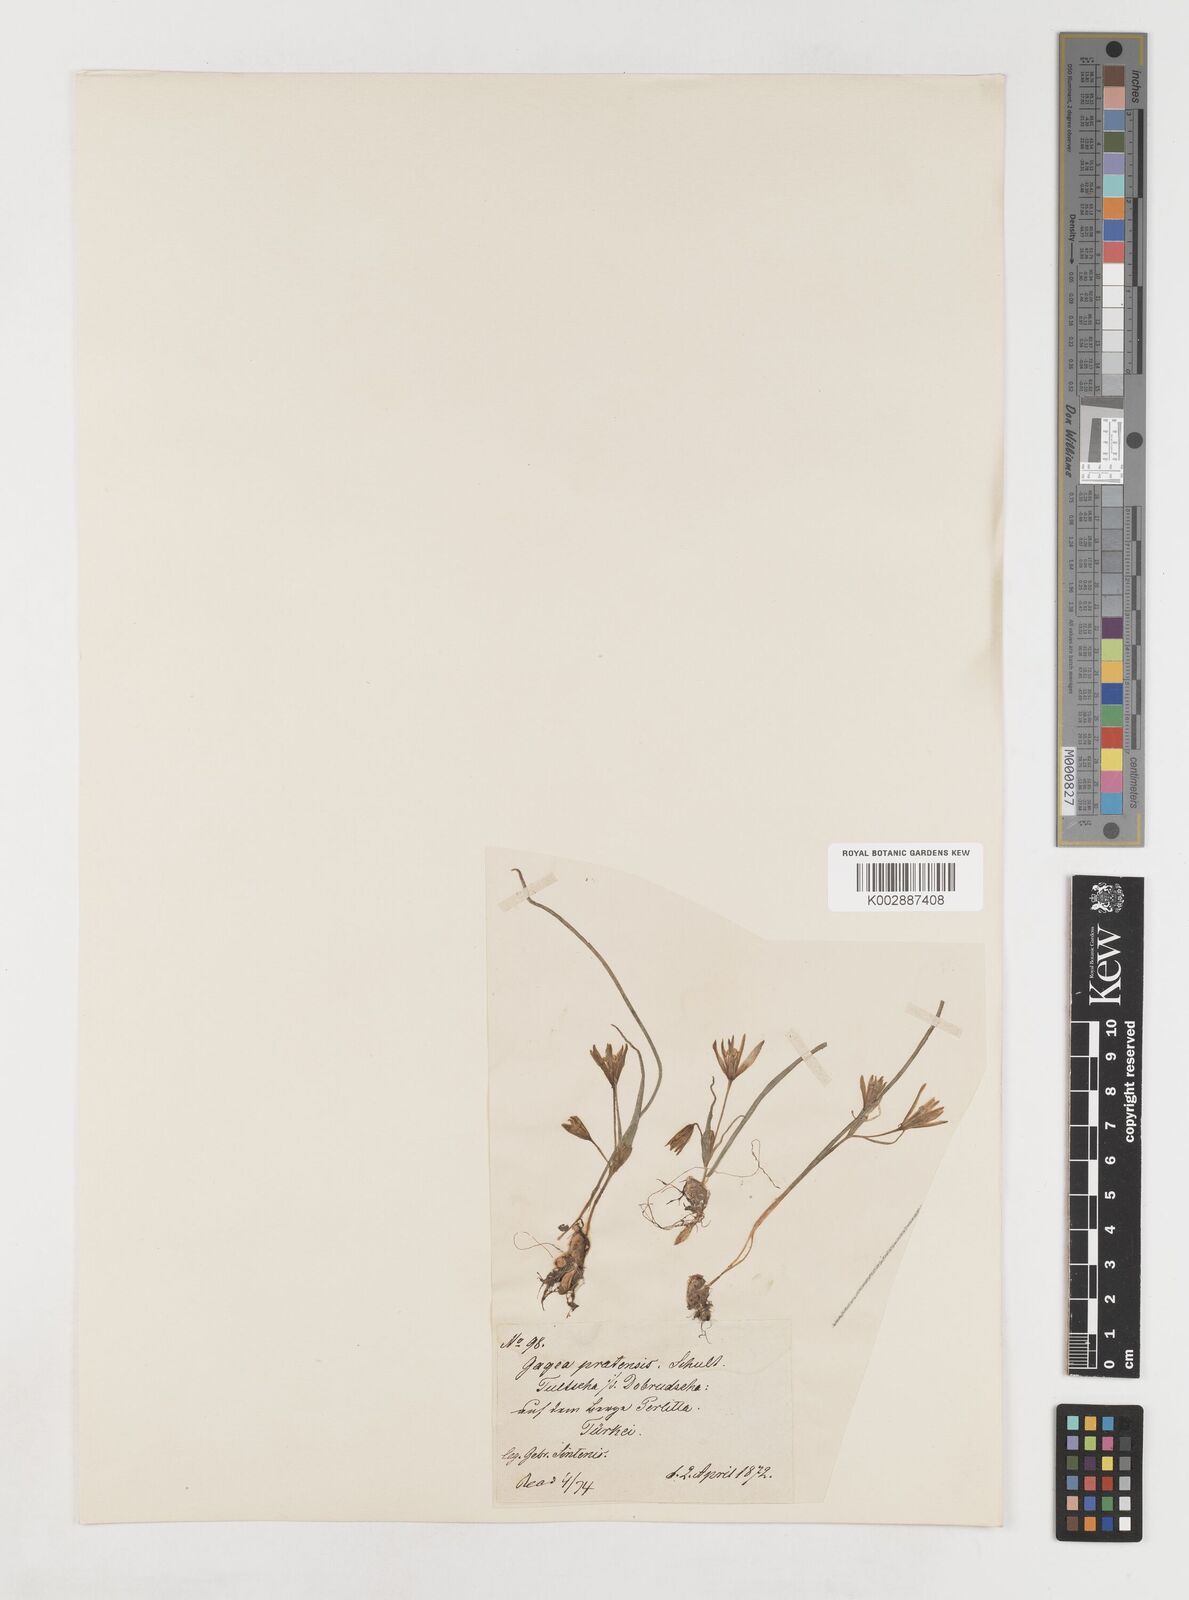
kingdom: Plantae
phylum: Tracheophyta
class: Liliopsida
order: Liliales
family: Liliaceae
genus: Gagea
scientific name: Gagea pratensis
